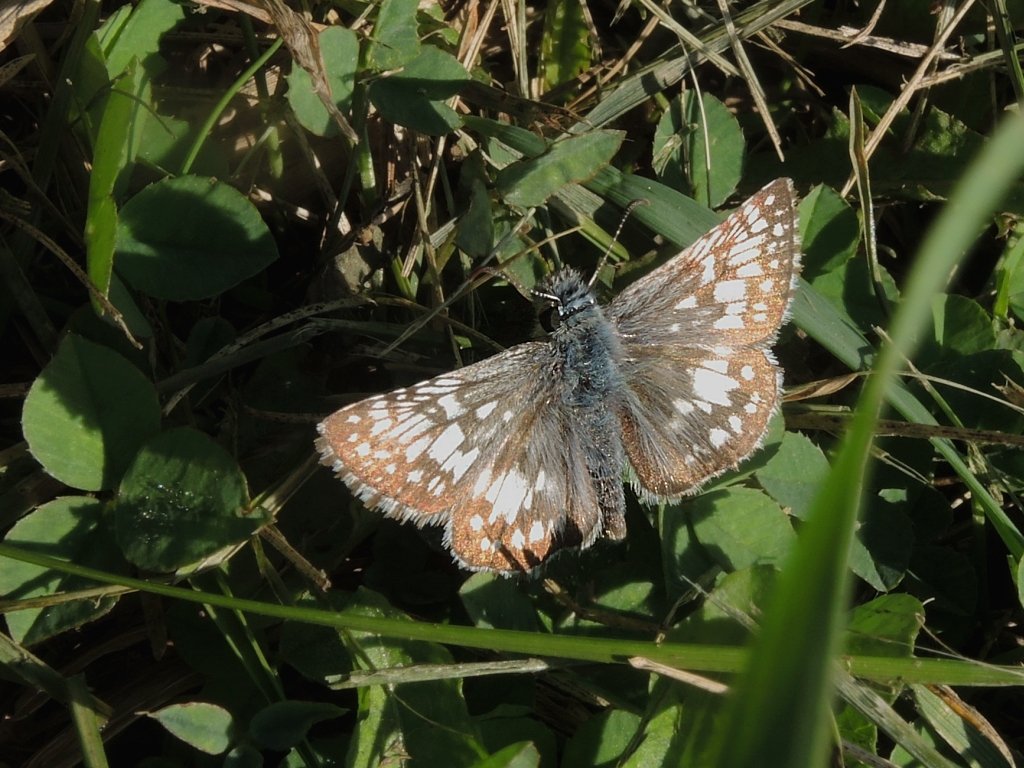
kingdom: Animalia
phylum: Arthropoda
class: Insecta
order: Lepidoptera
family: Hesperiidae
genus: Pyrgus
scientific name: Pyrgus communis
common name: Common Checkered-Skipper
